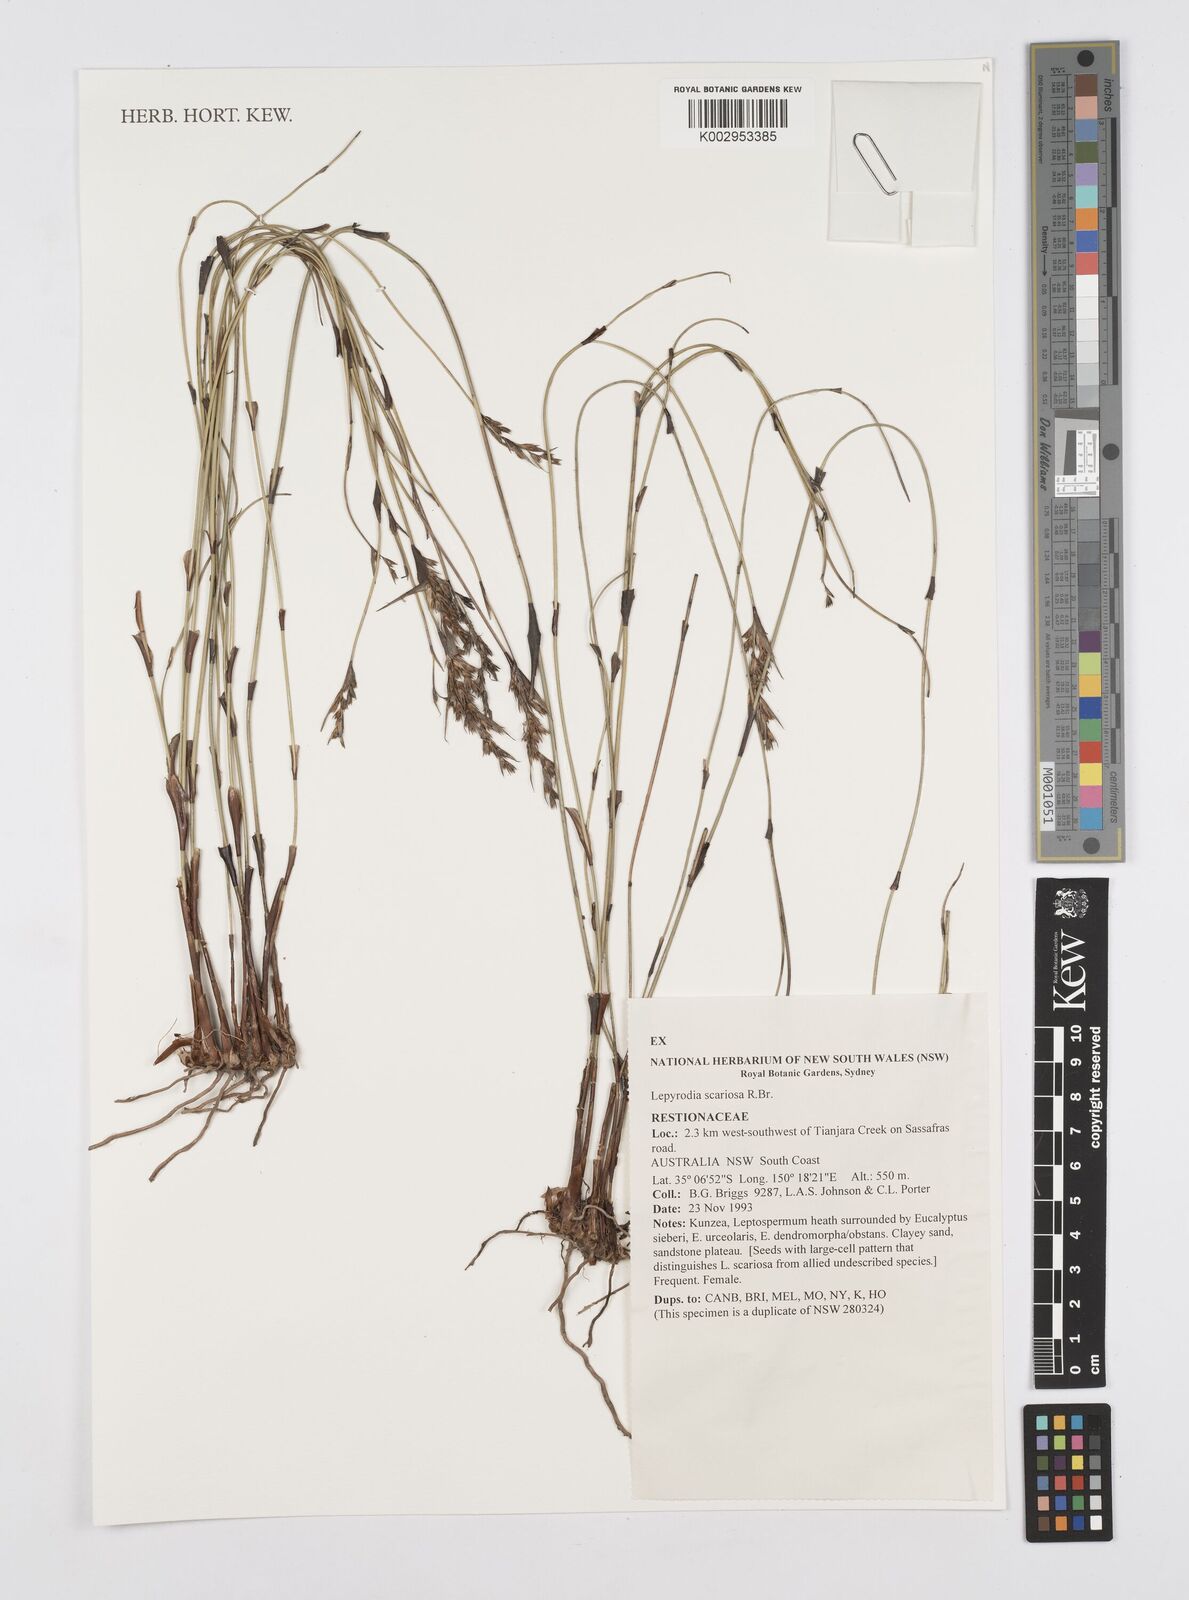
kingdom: Plantae
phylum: Tracheophyta
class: Liliopsida
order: Poales
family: Restionaceae
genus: Lepyrodia
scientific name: Lepyrodia scariosa
